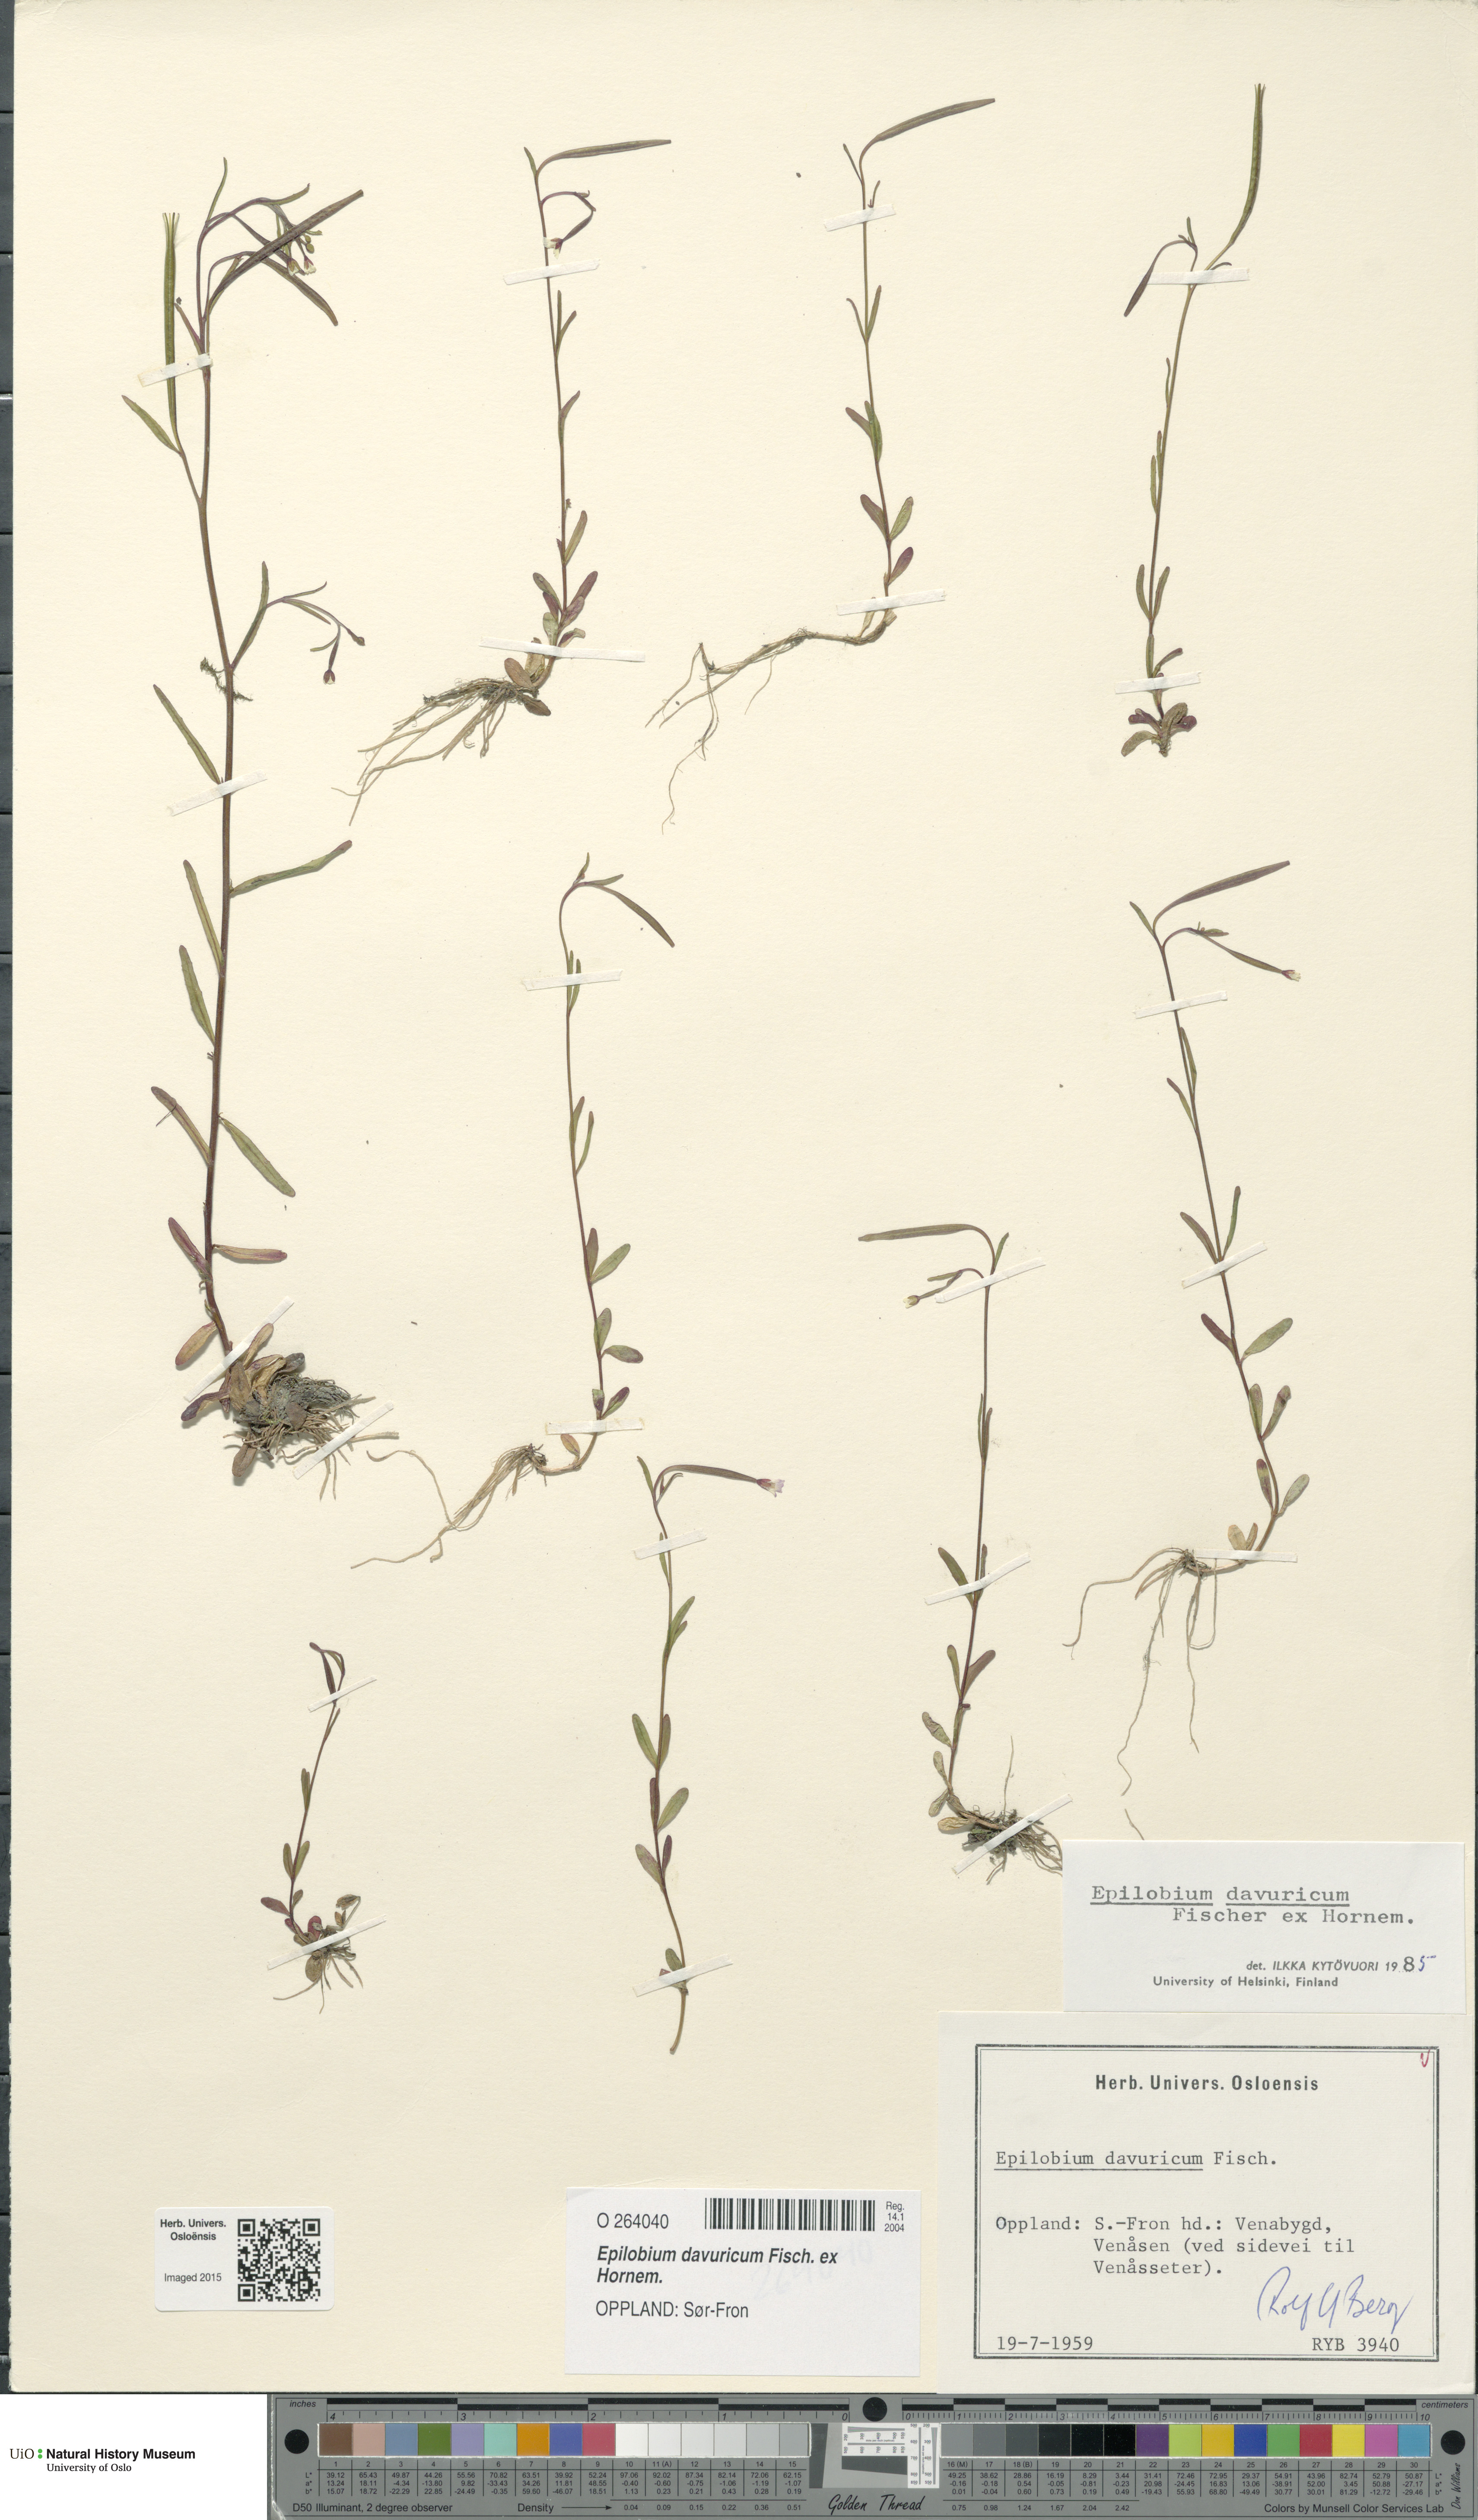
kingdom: Plantae
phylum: Tracheophyta
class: Magnoliopsida
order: Myrtales
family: Onagraceae
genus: Epilobium
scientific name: Epilobium davuricum
